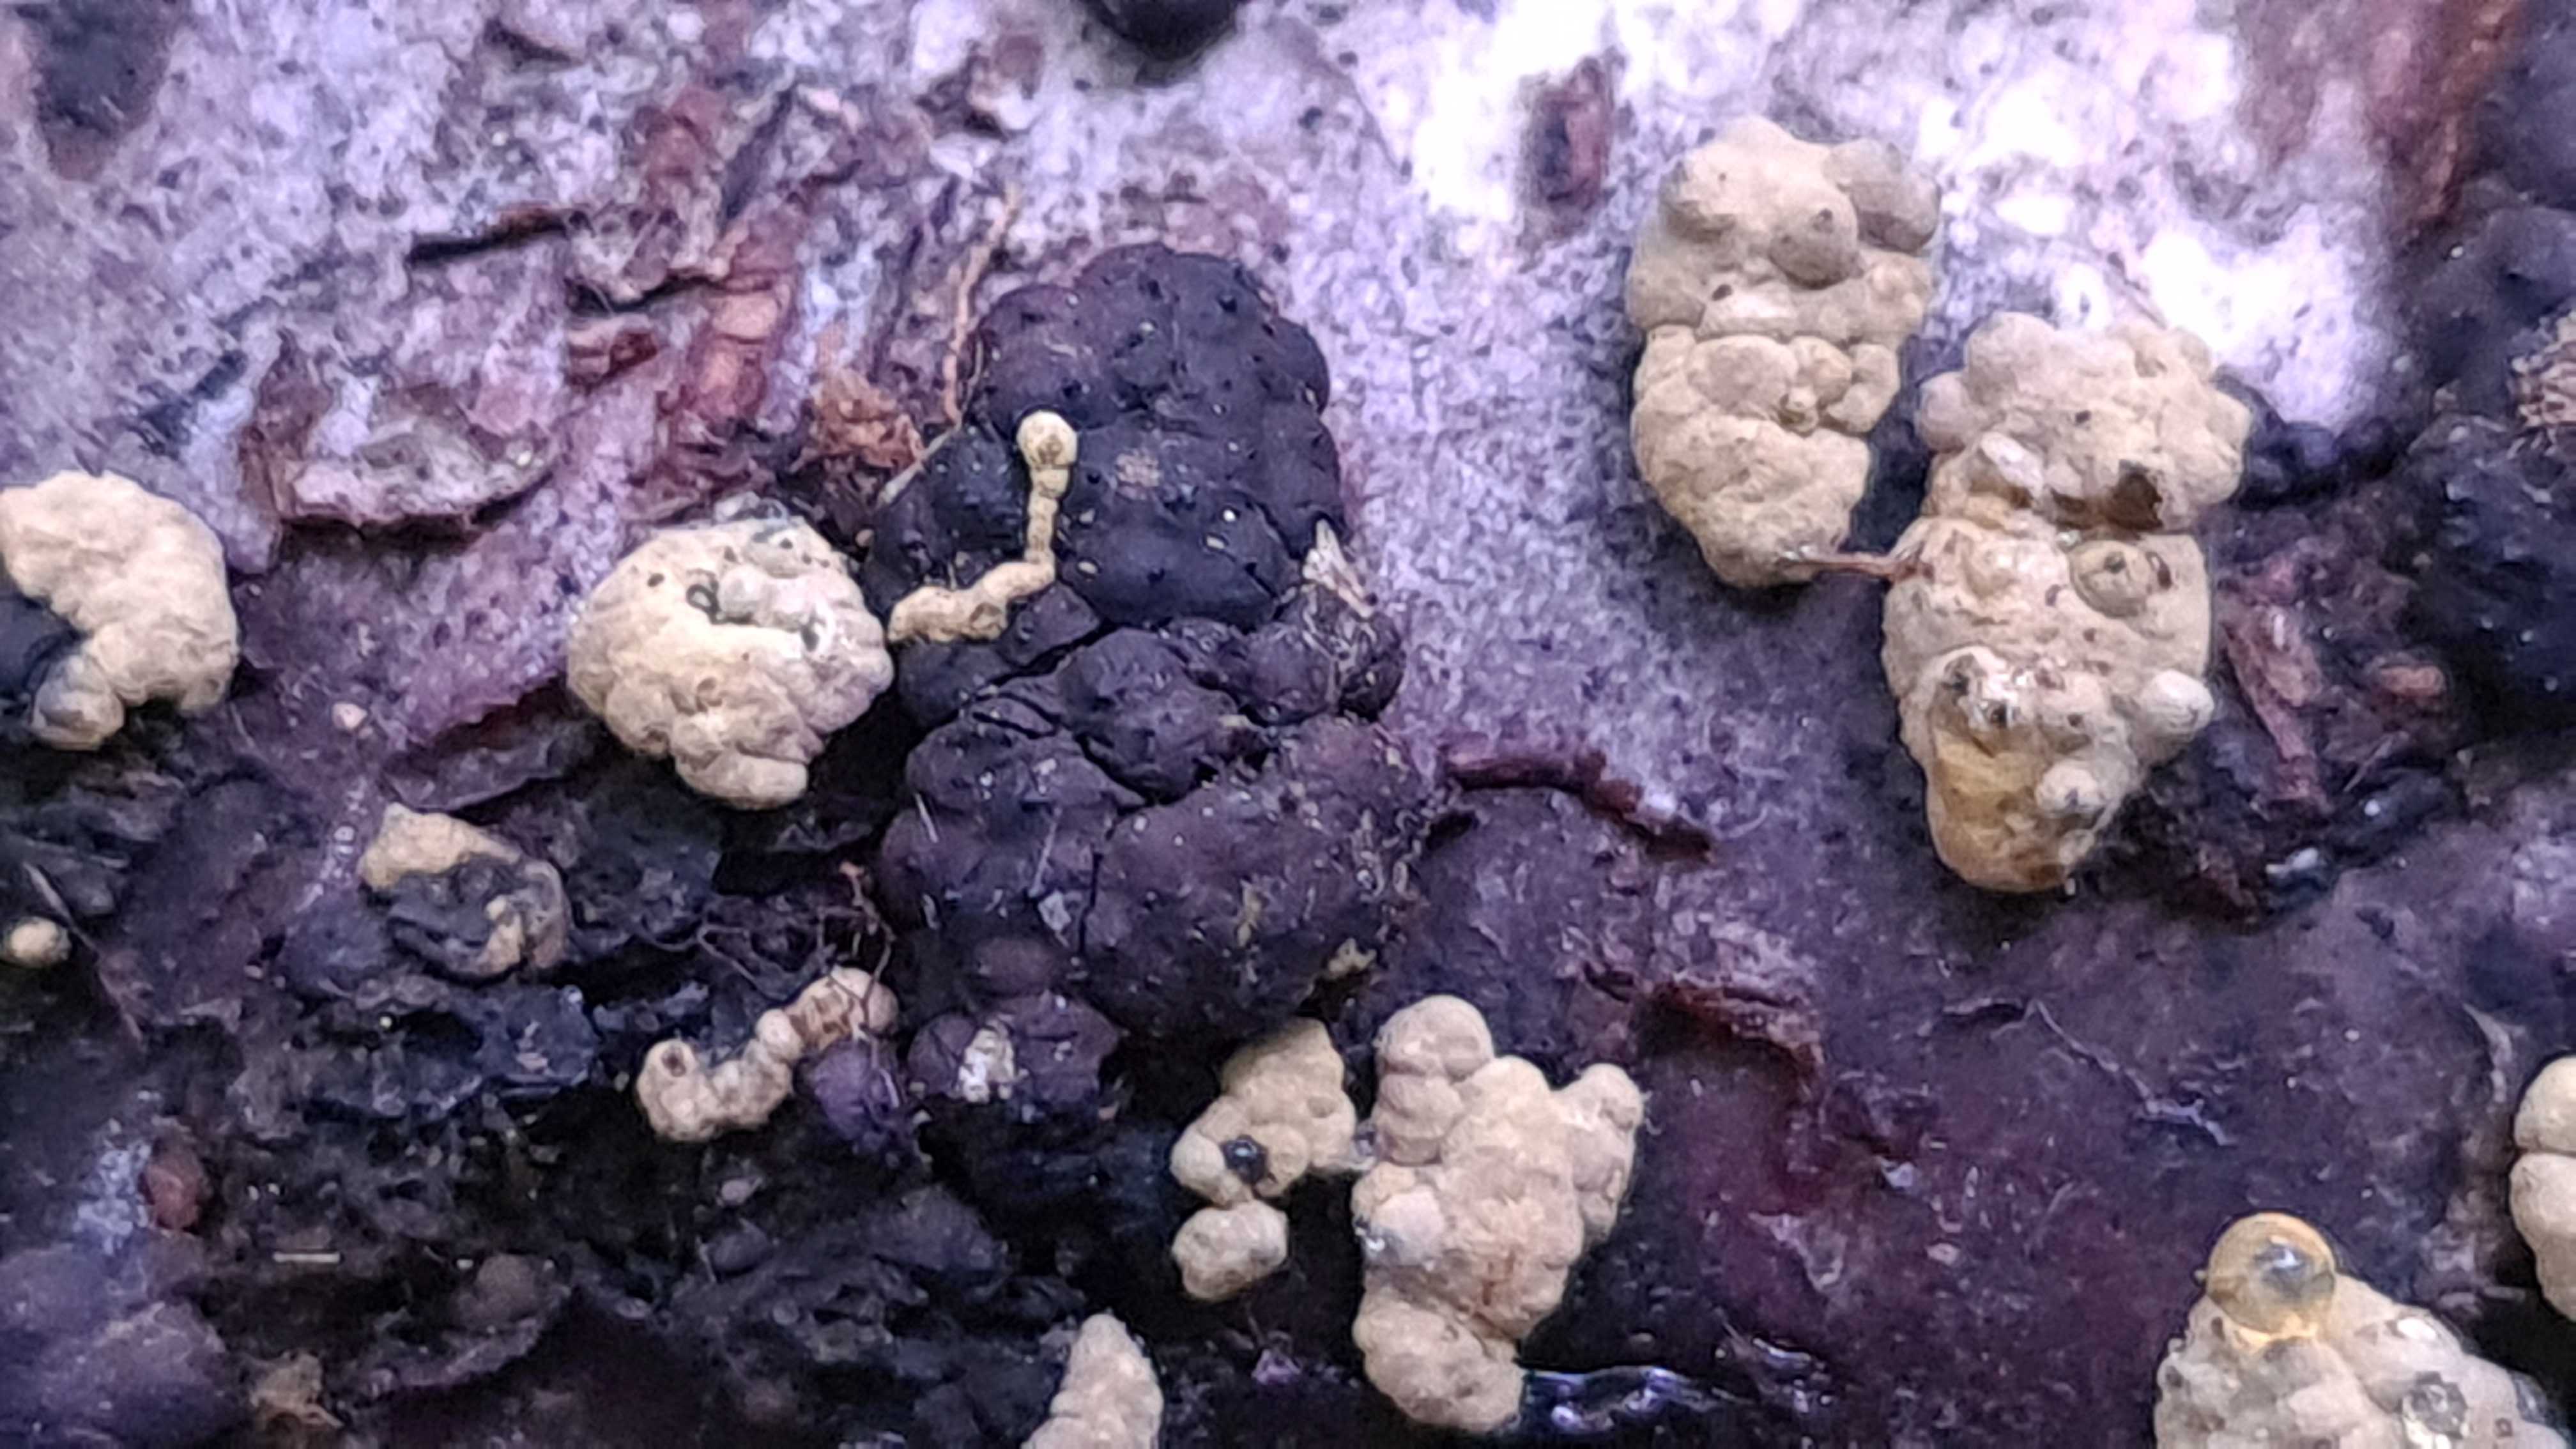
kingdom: Fungi
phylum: Ascomycota
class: Sordariomycetes
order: Xylariales
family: Hypoxylaceae
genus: Jackrogersella
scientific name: Jackrogersella
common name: kulbær
